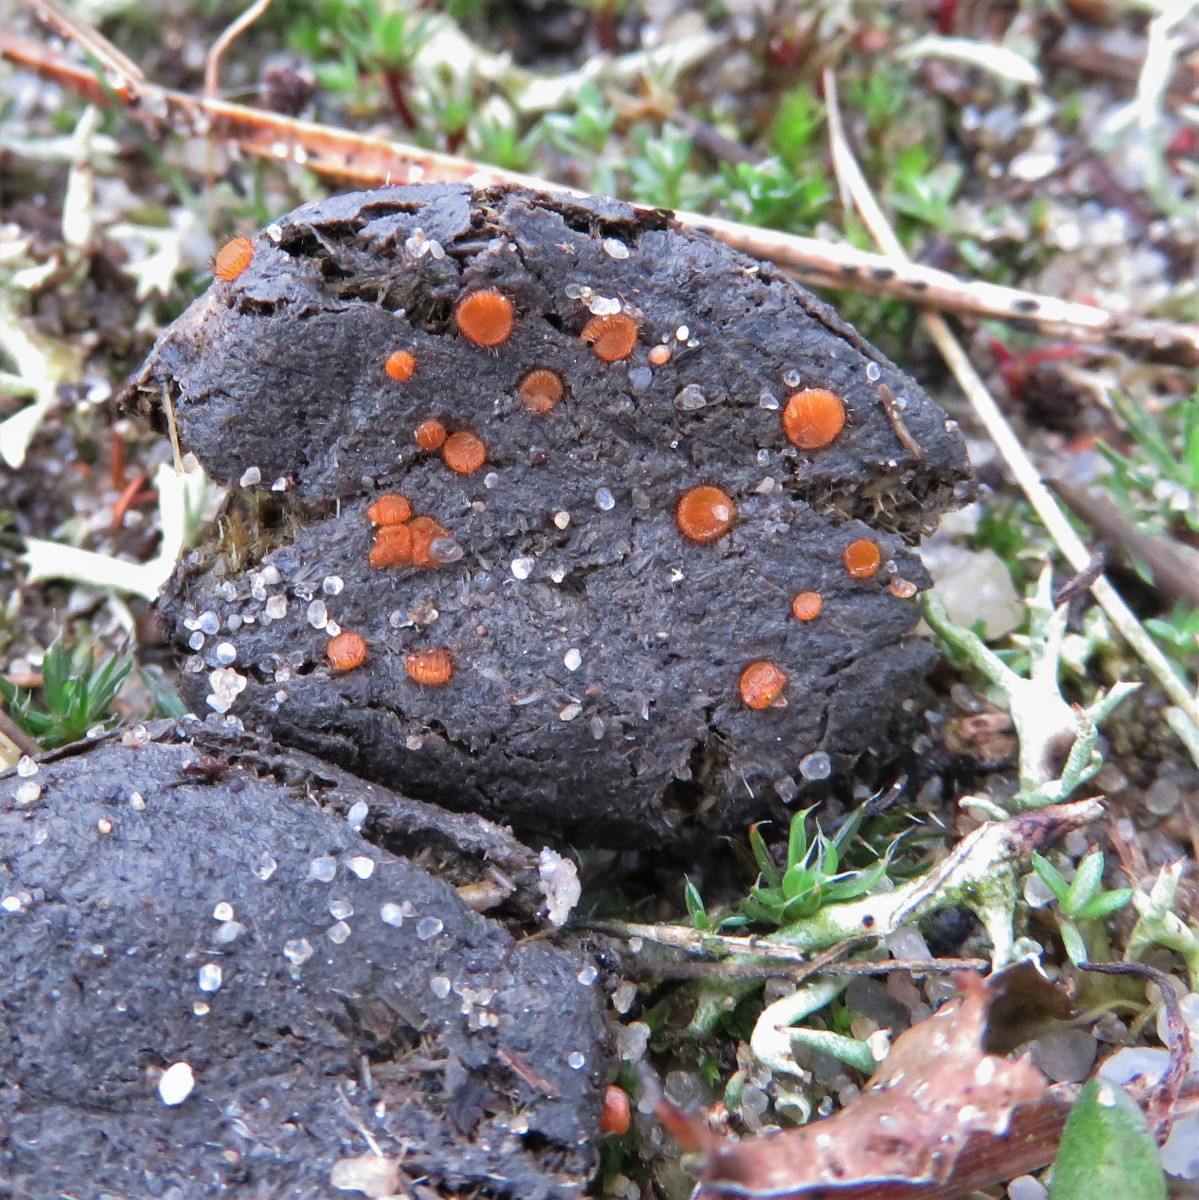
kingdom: Fungi
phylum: Ascomycota
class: Pezizomycetes
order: Pezizales
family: Pyronemataceae
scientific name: Pyronemataceae
